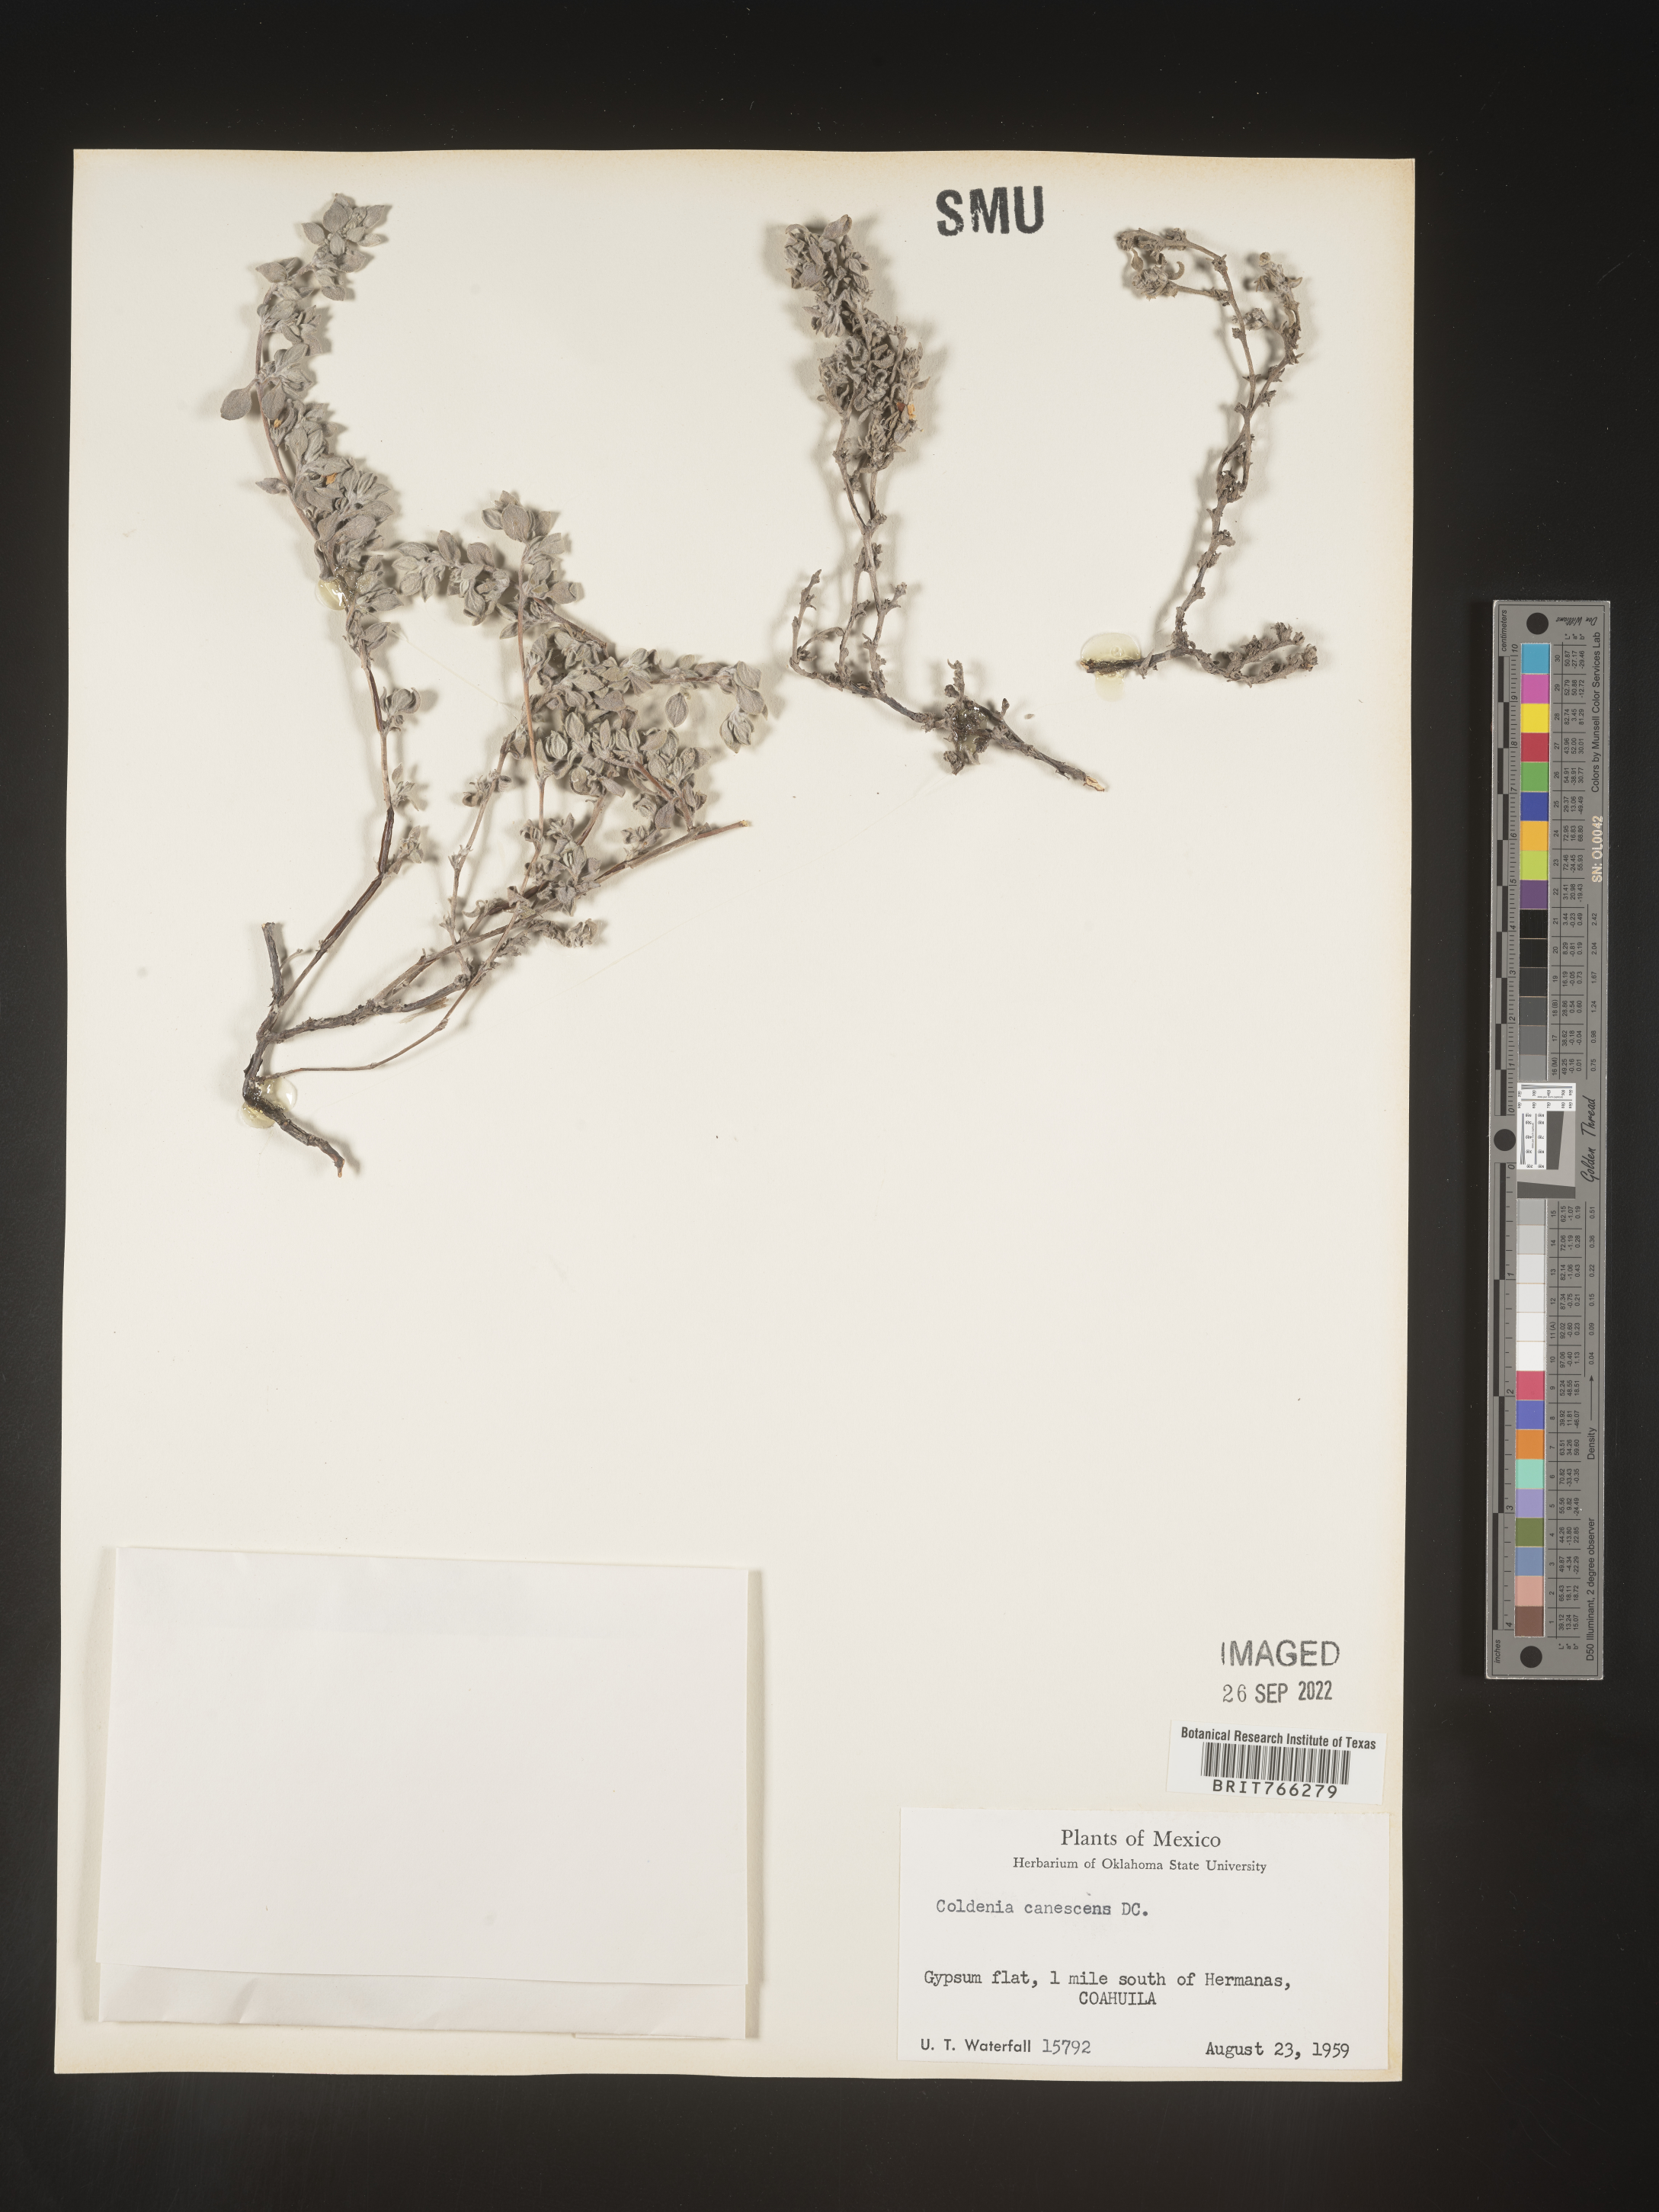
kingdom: Plantae
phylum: Tracheophyta
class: Magnoliopsida
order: Boraginales
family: Coldeniaceae
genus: Coldenia
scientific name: Coldenia
